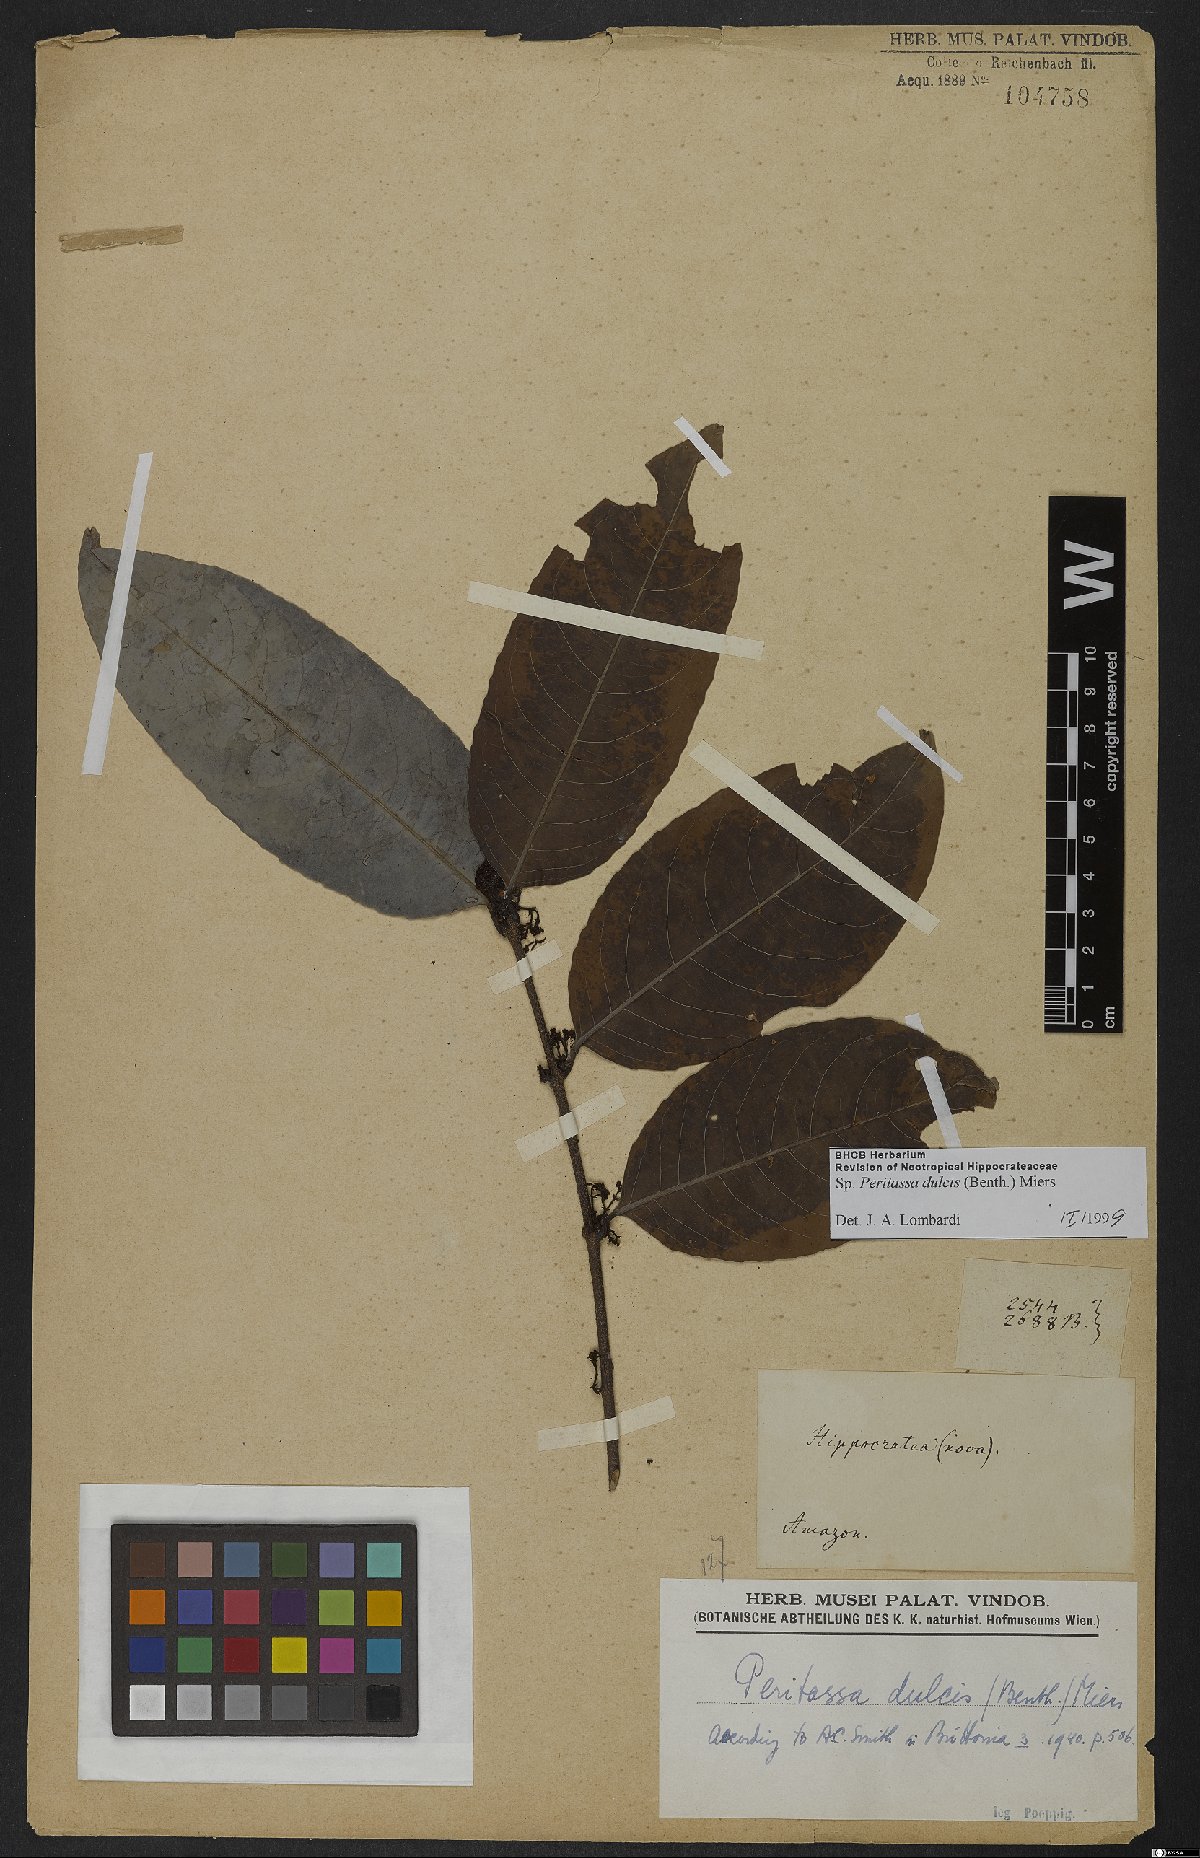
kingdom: Plantae
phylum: Tracheophyta
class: Magnoliopsida
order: Celastrales
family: Celastraceae
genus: Peritassa
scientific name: Peritassa dulcis
